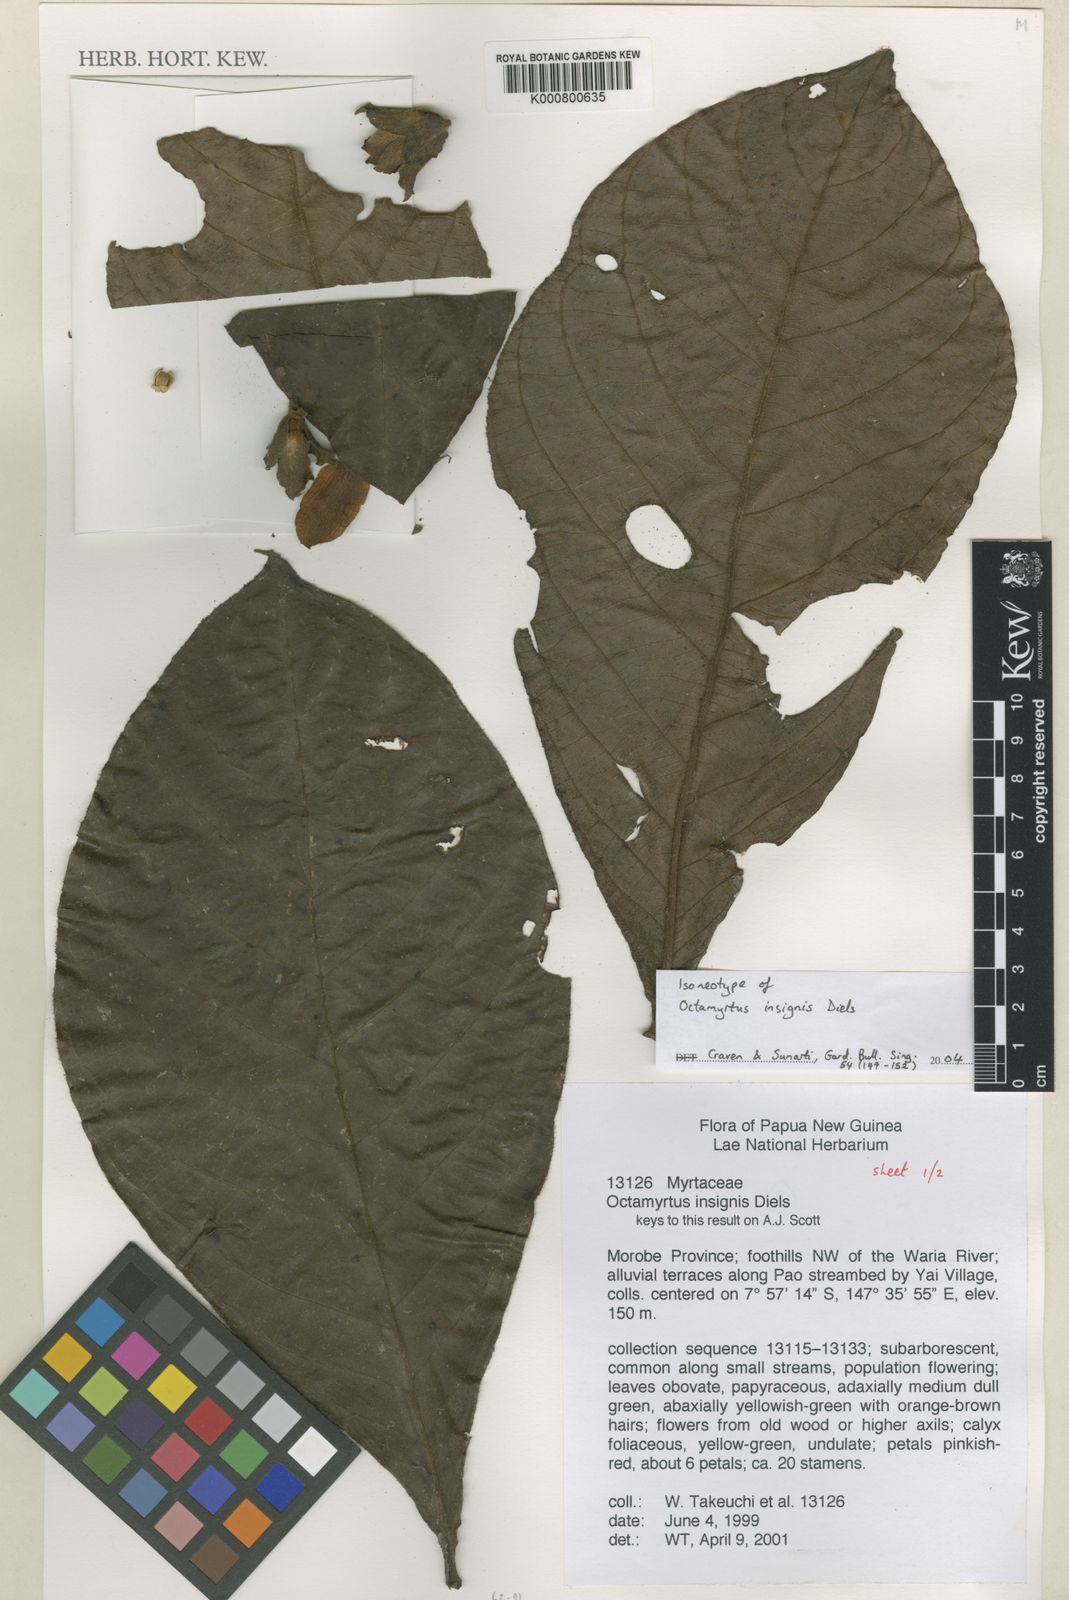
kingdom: Plantae
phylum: Tracheophyta
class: Magnoliopsida
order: Myrtales
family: Myrtaceae
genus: Octamyrtus
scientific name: Octamyrtus insignis
